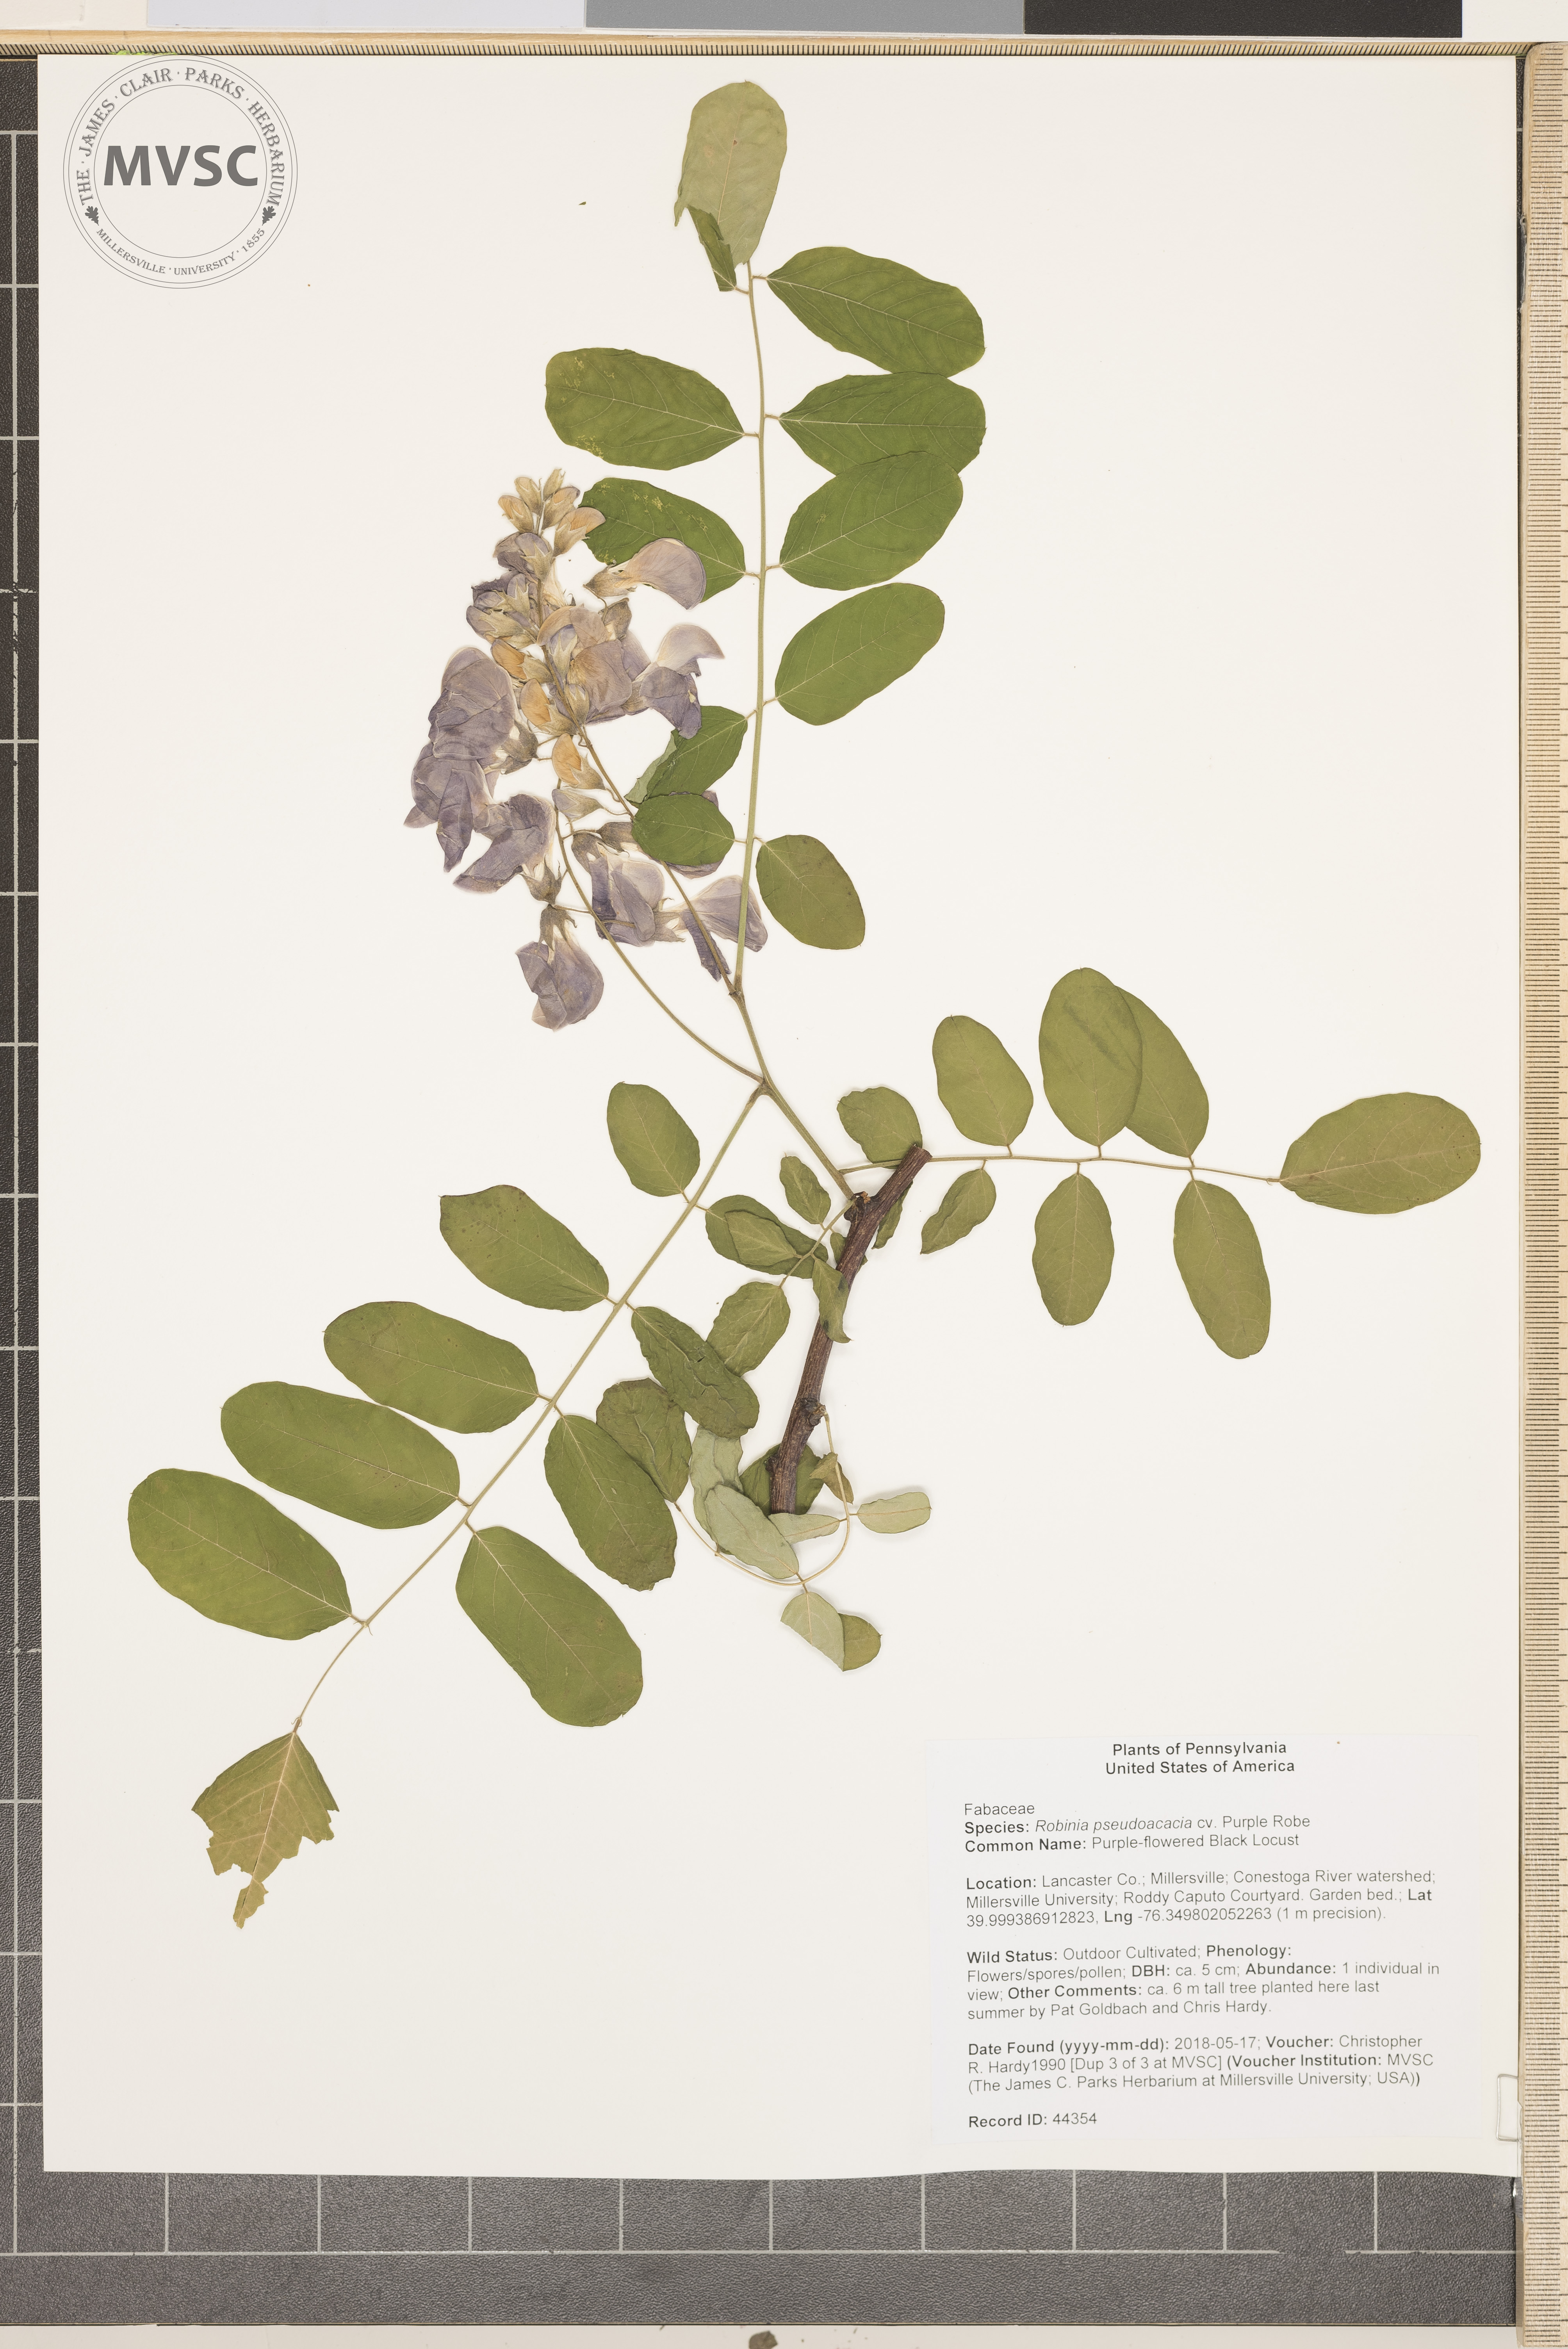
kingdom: Plantae
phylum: Tracheophyta
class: Magnoliopsida
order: Fabales
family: Fabaceae
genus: Robinia
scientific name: Robinia pseudoacacia
